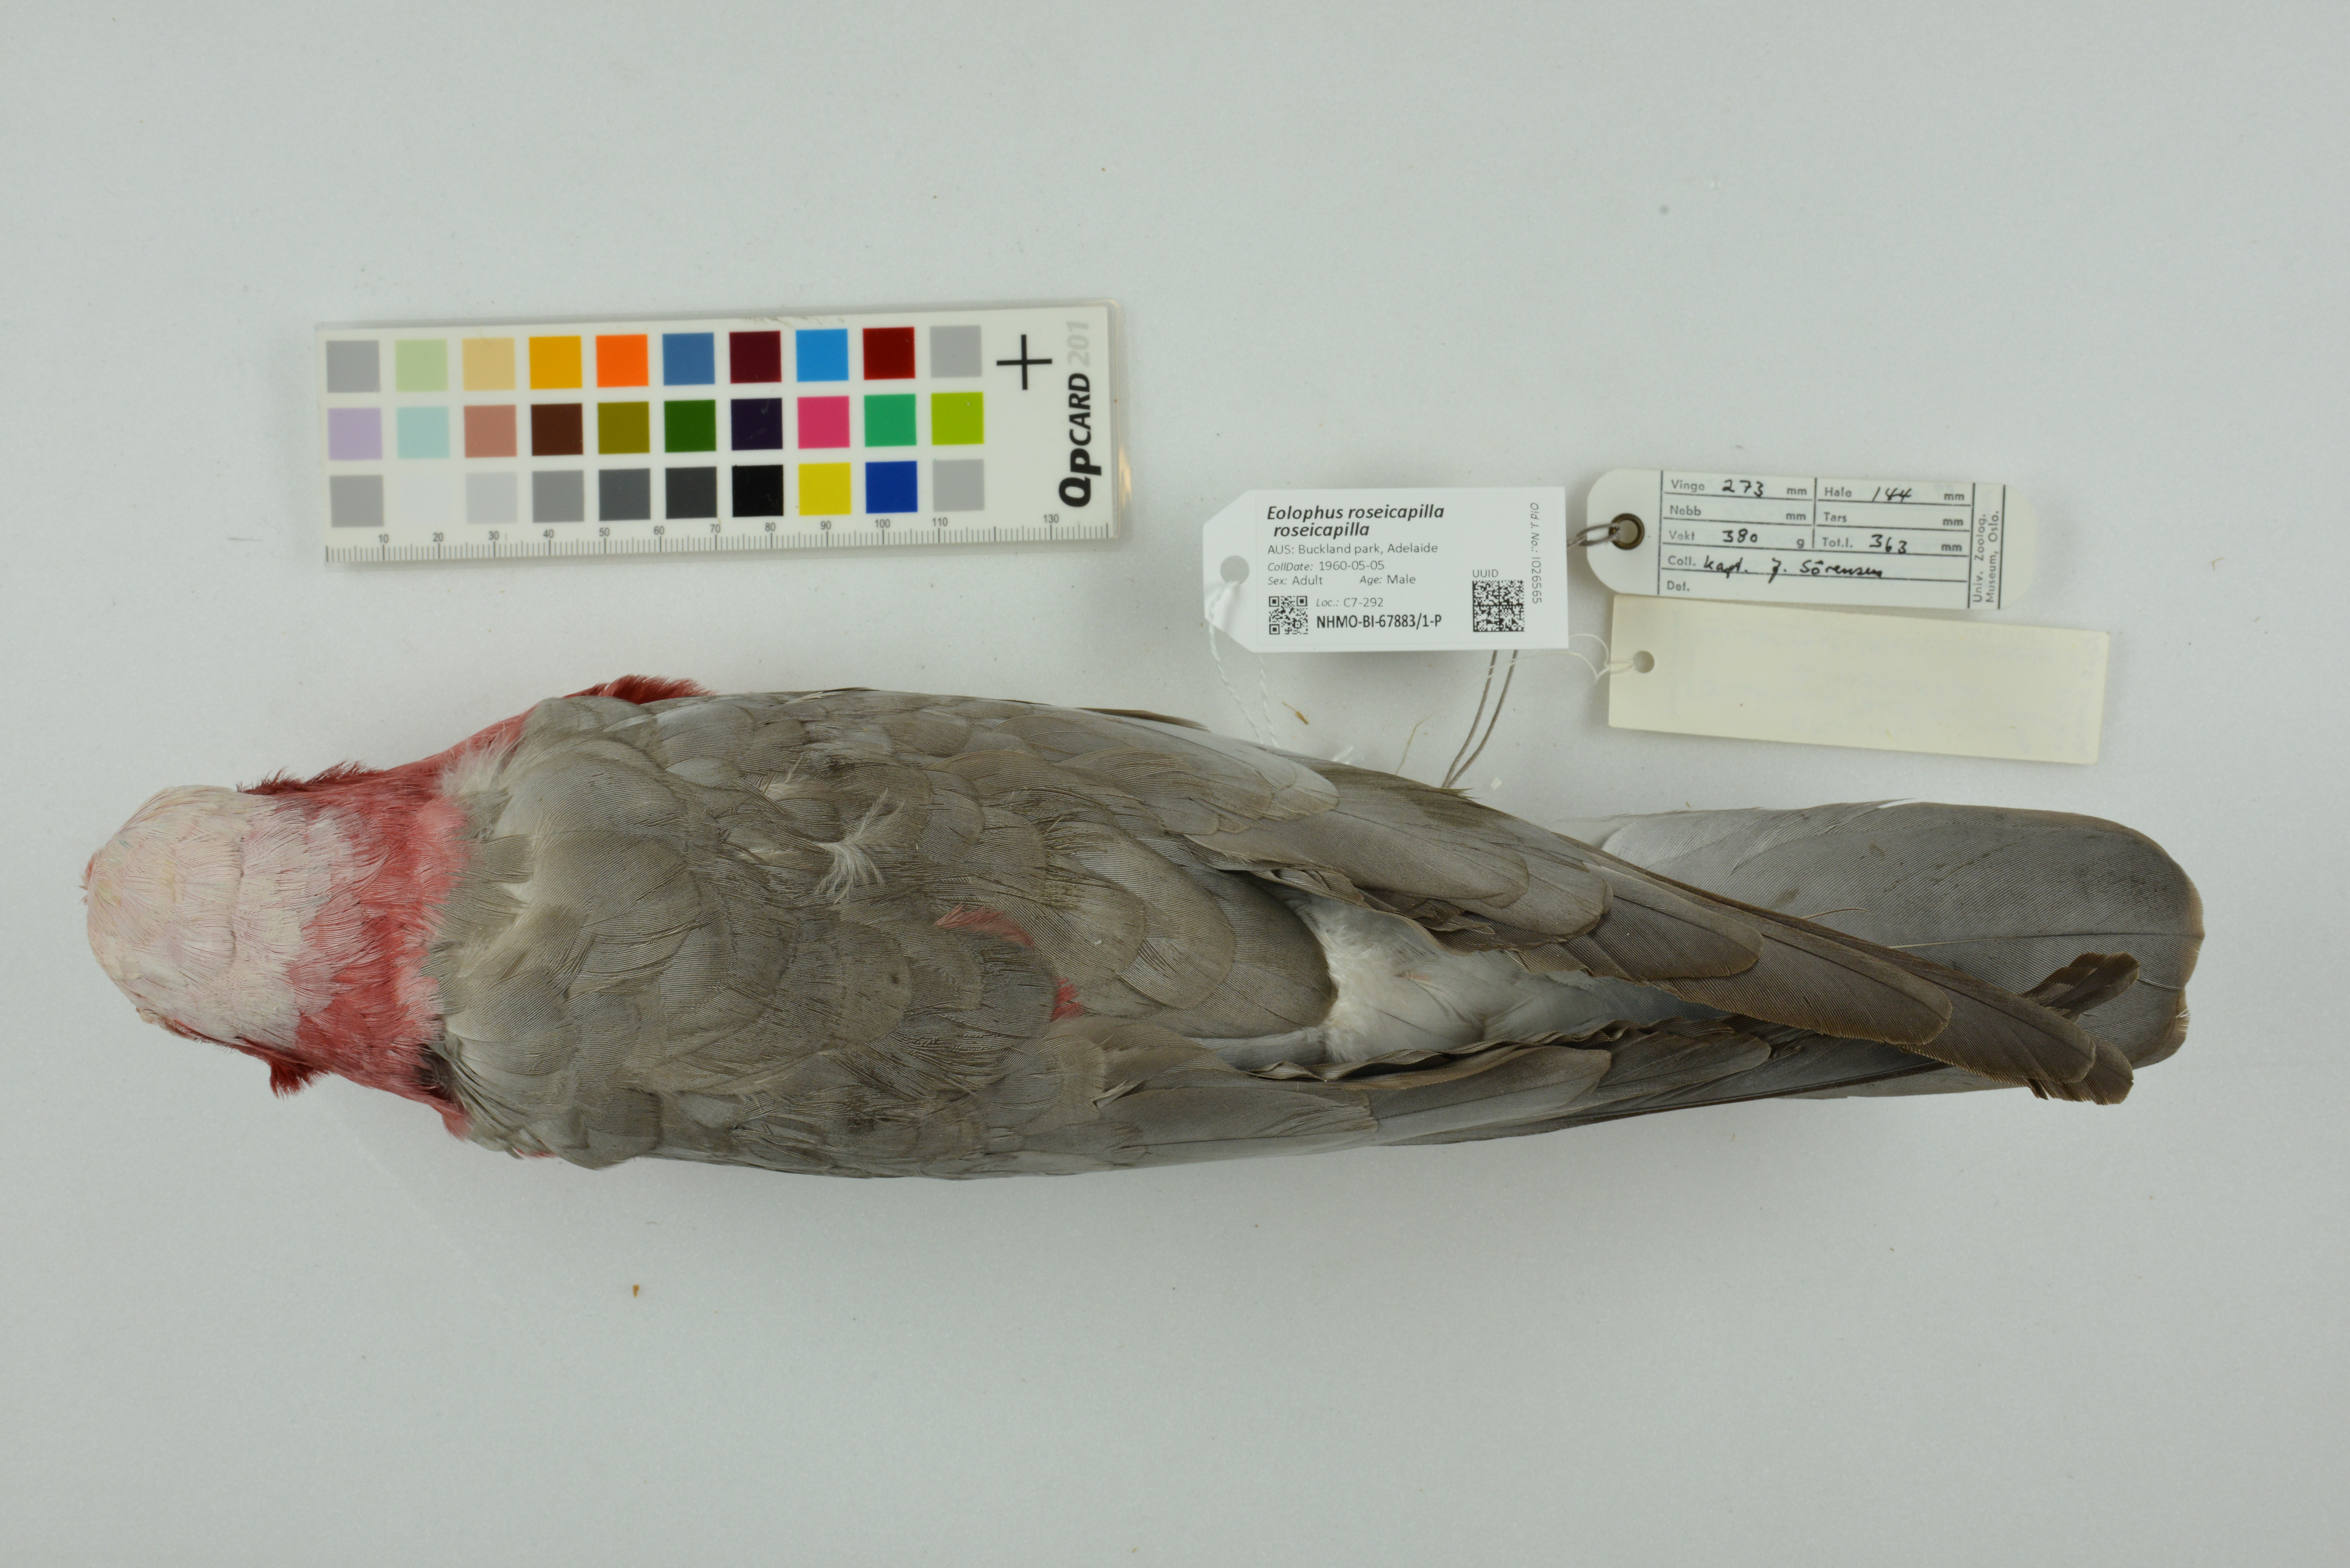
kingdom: Animalia
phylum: Chordata
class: Aves
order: Psittaciformes
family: Psittacidae
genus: Eolophus
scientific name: Eolophus roseicapilla
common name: Galah
